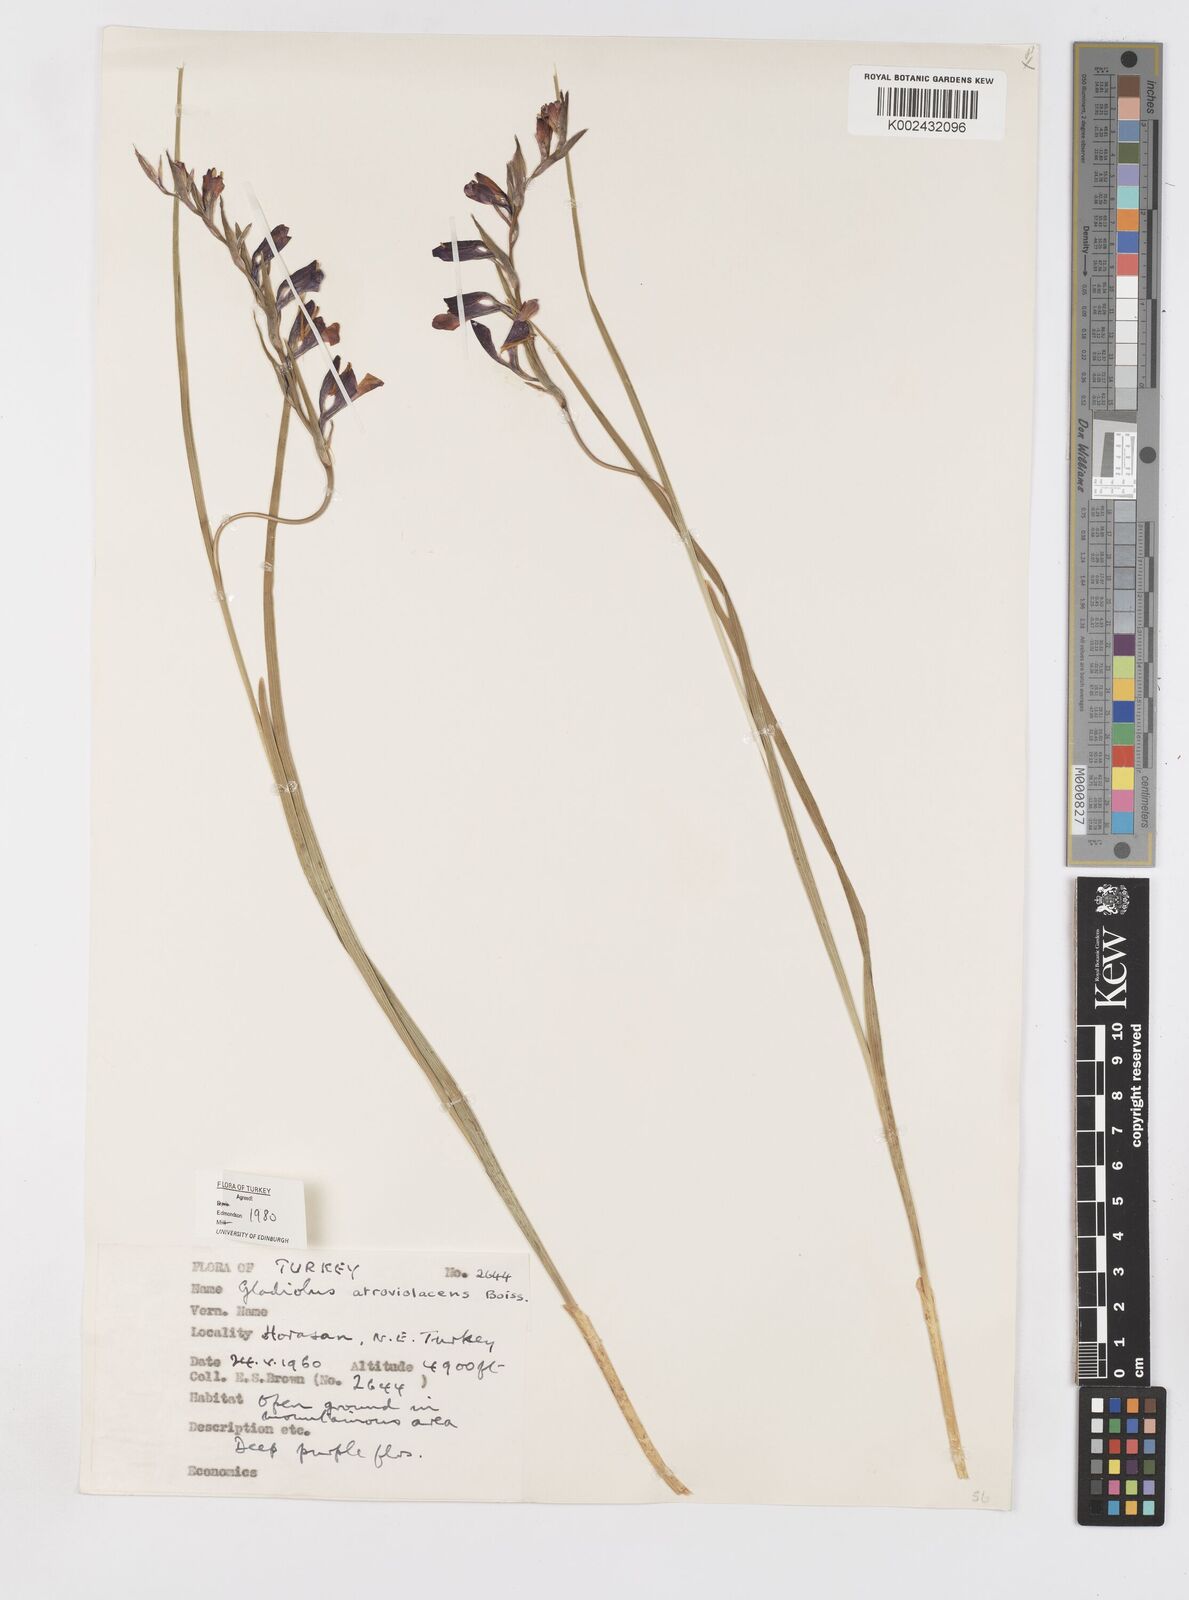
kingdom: Plantae
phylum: Tracheophyta
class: Liliopsida
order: Asparagales
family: Iridaceae
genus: Gladiolus
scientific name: Gladiolus atroviolaceus
